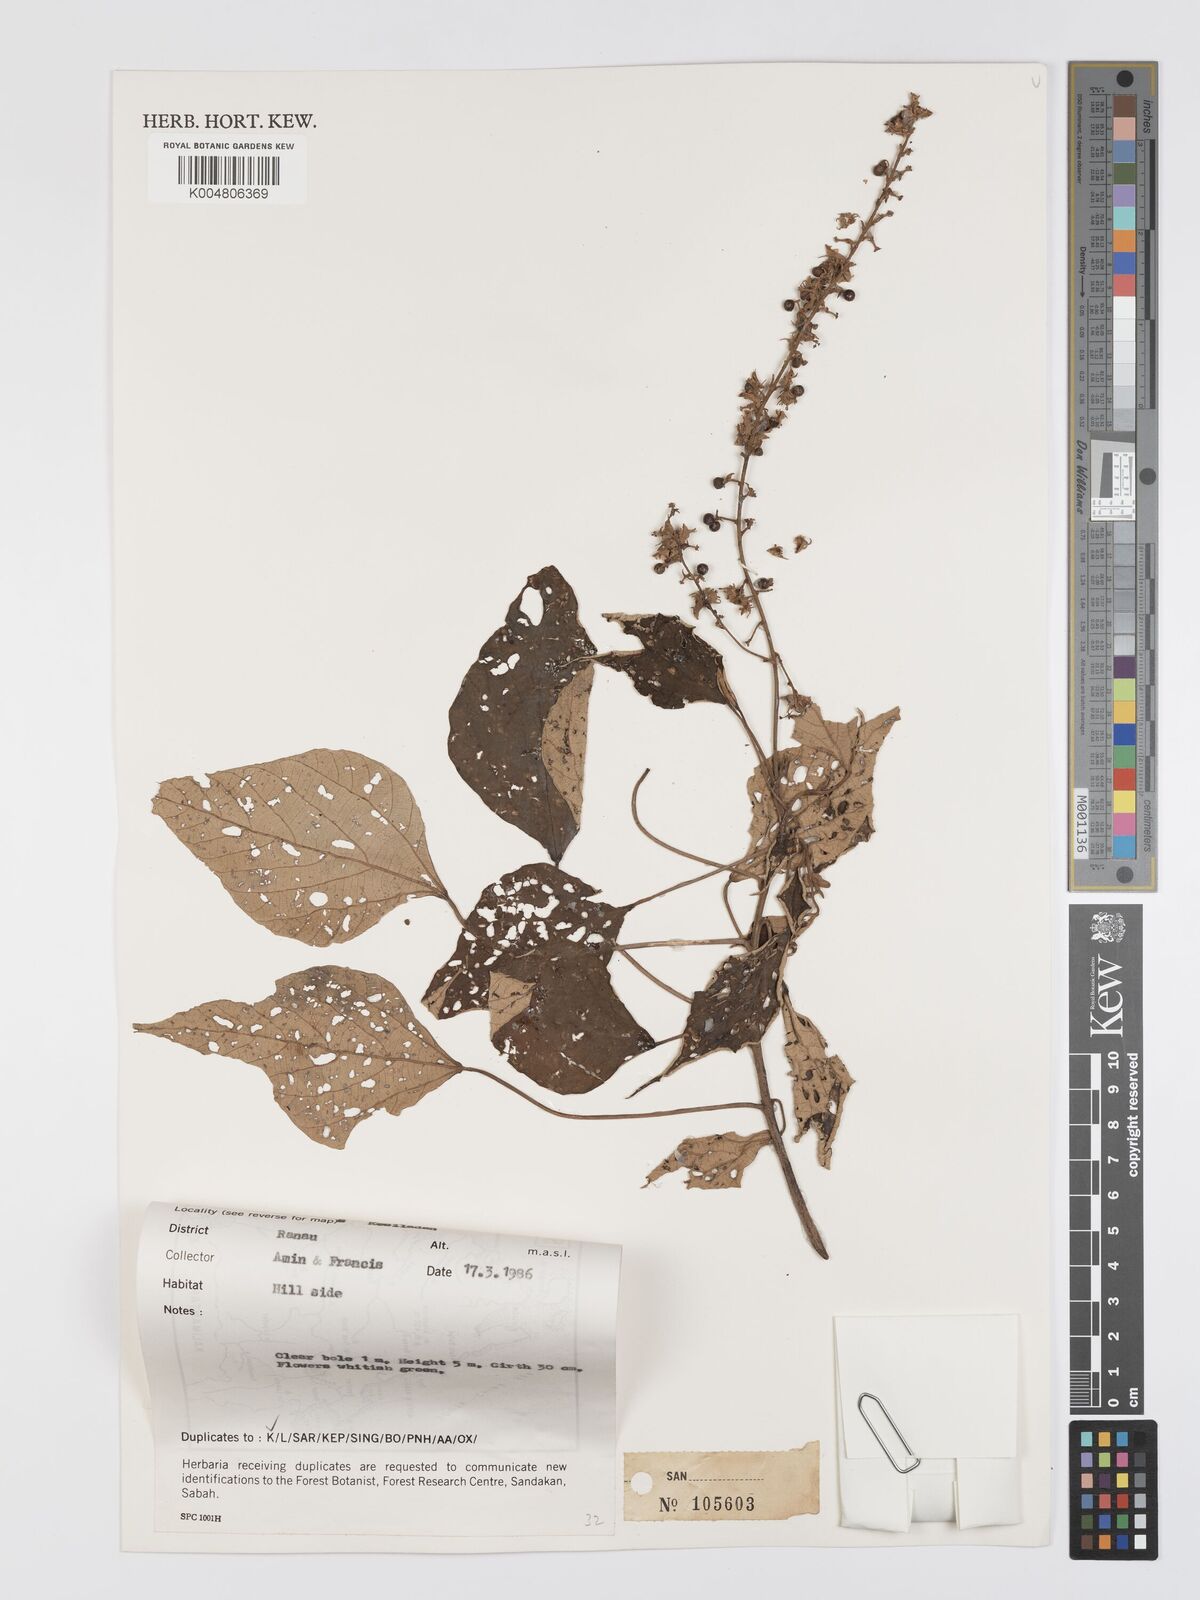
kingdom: Plantae
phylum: Tracheophyta
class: Magnoliopsida
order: Malpighiales
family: Euphorbiaceae
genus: Mallotus
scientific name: Mallotus paniculatus
